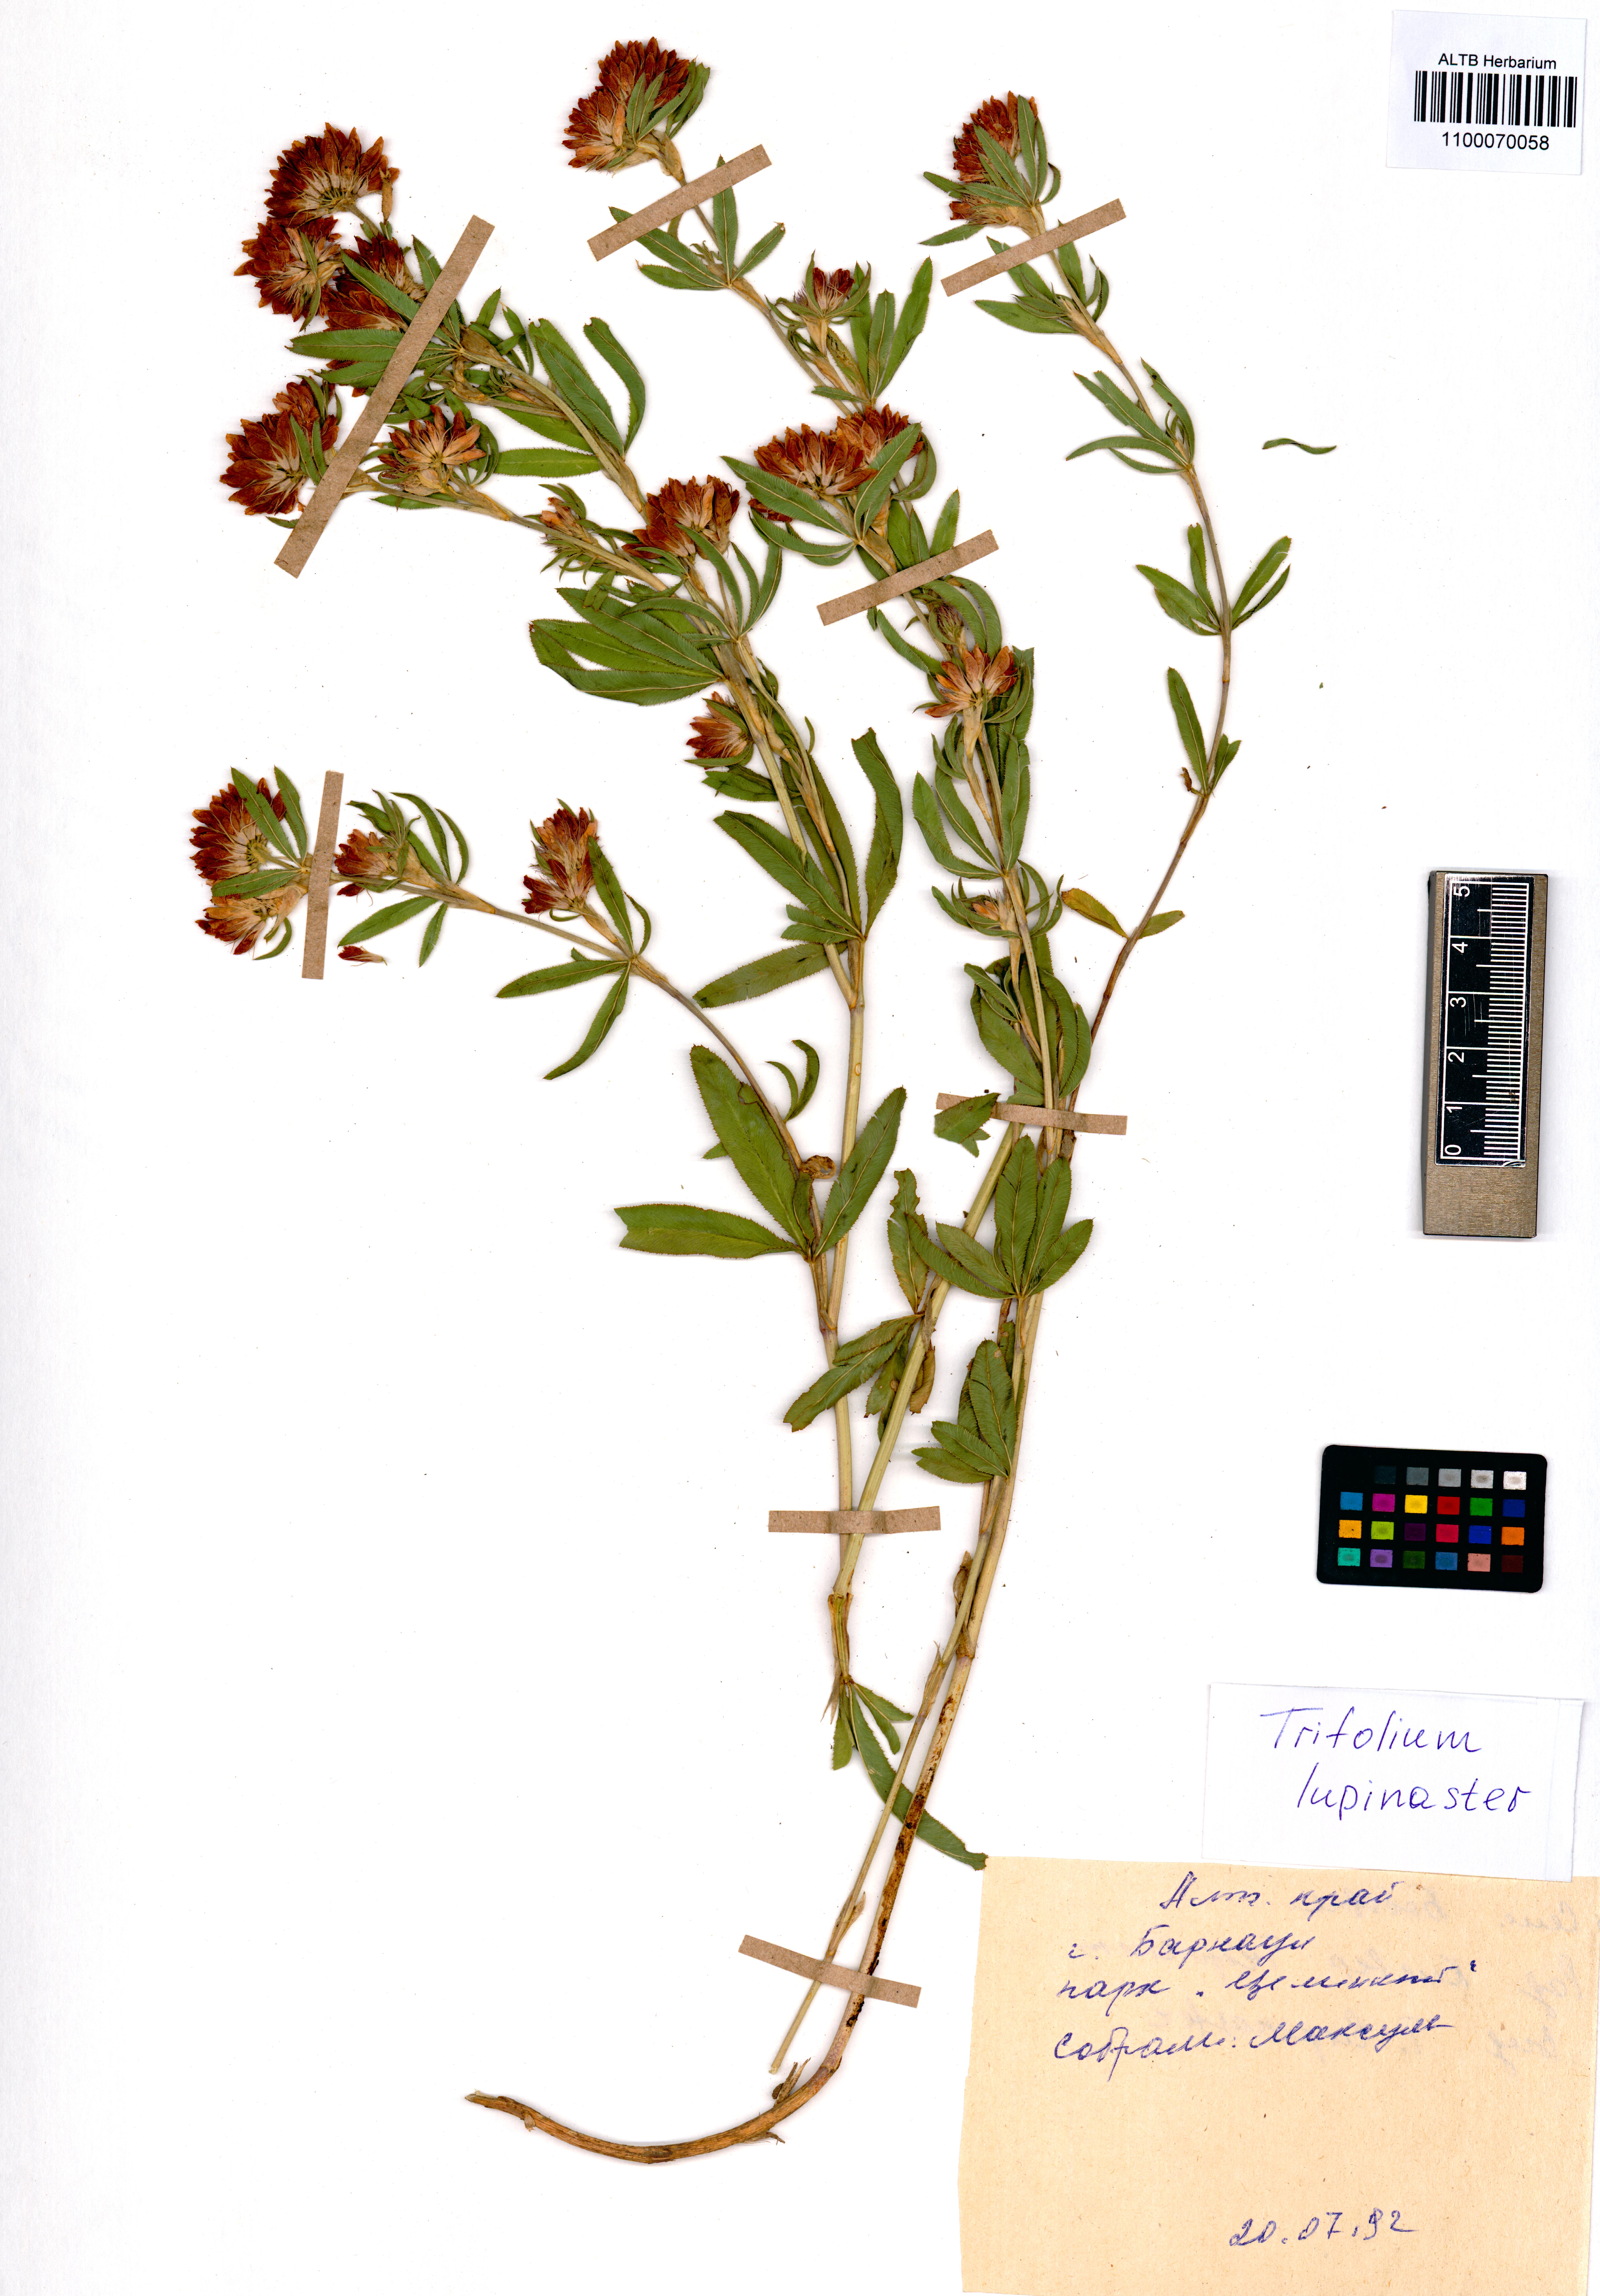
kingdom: Plantae
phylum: Tracheophyta
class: Magnoliopsida
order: Fabales
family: Fabaceae
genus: Trifolium
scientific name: Trifolium lupinaster
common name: Lupine clover
